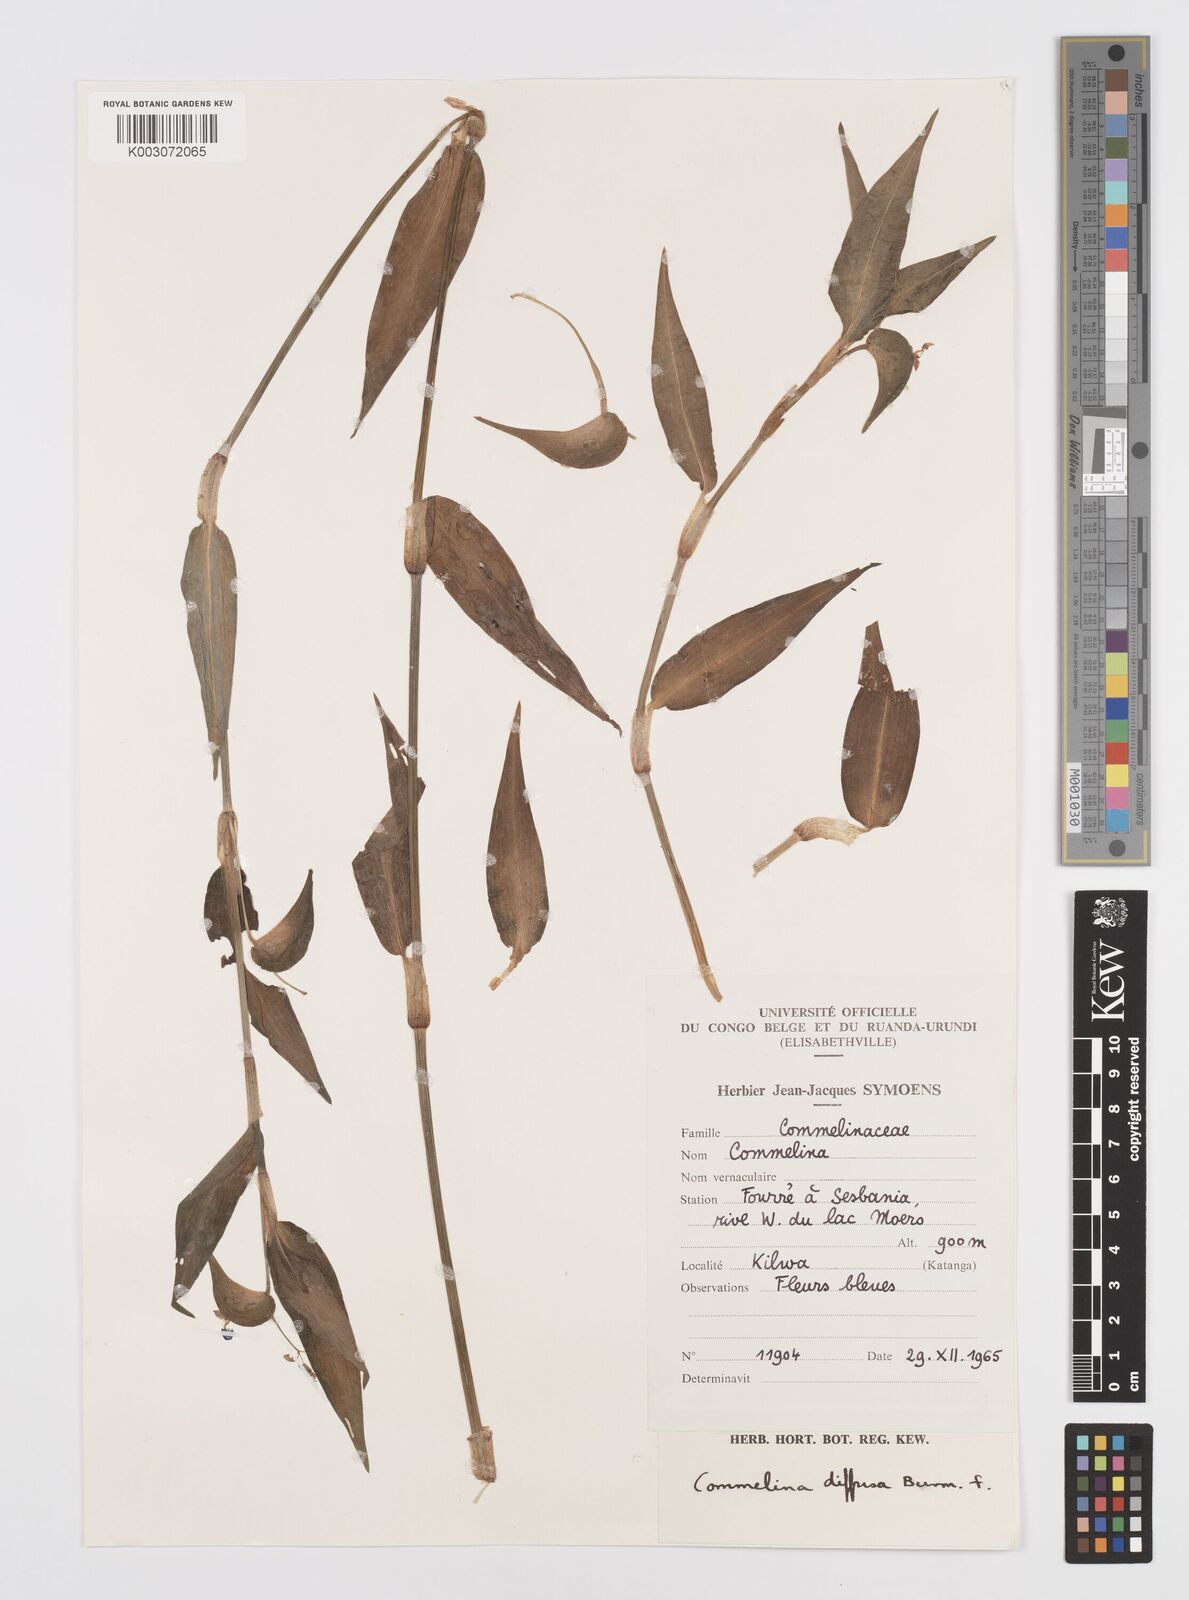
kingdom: Plantae
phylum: Tracheophyta
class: Liliopsida
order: Commelinales
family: Commelinaceae
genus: Commelina
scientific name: Commelina diffusa
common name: Climbing dayflower
